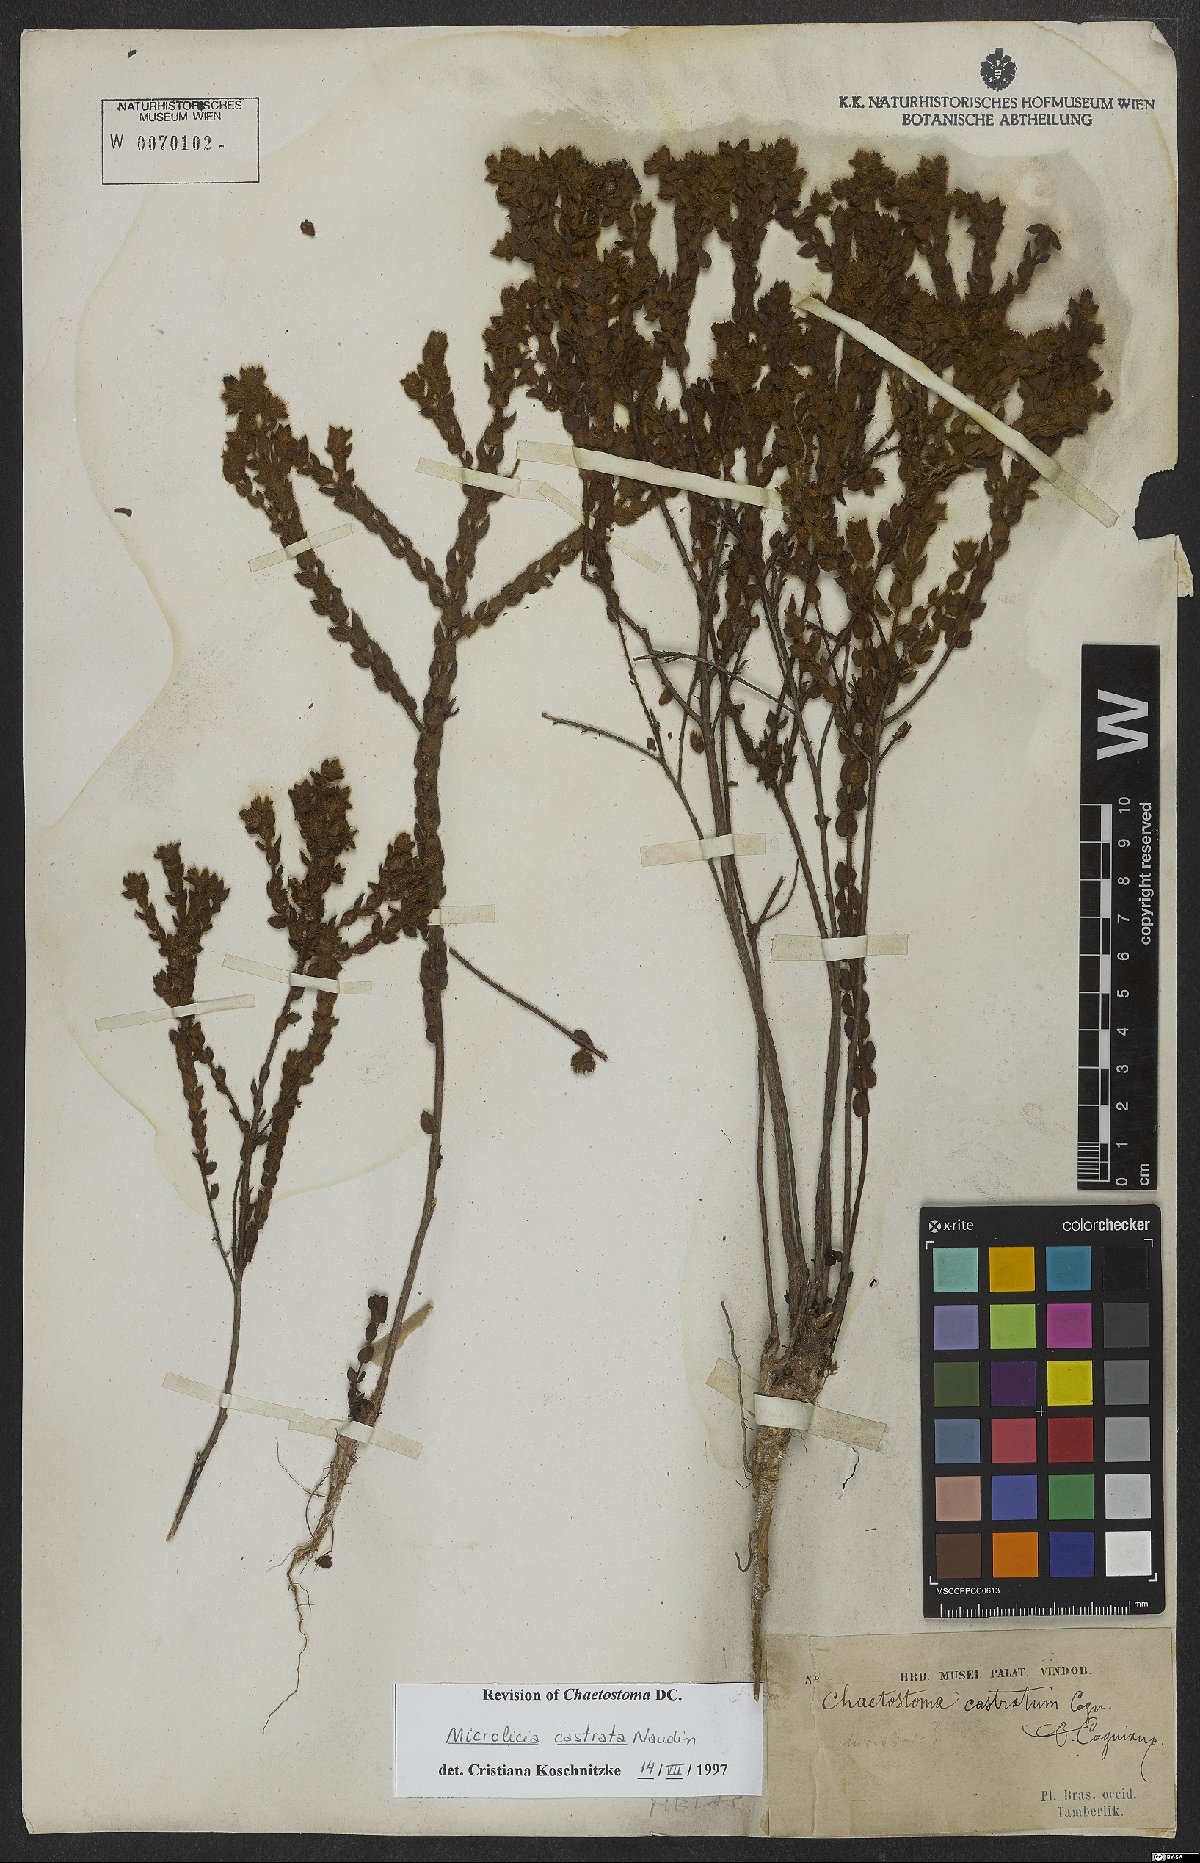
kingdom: Plantae
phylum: Tracheophyta
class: Magnoliopsida
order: Myrtales
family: Melastomataceae
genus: Microlicia
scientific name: Microlicia castrata
